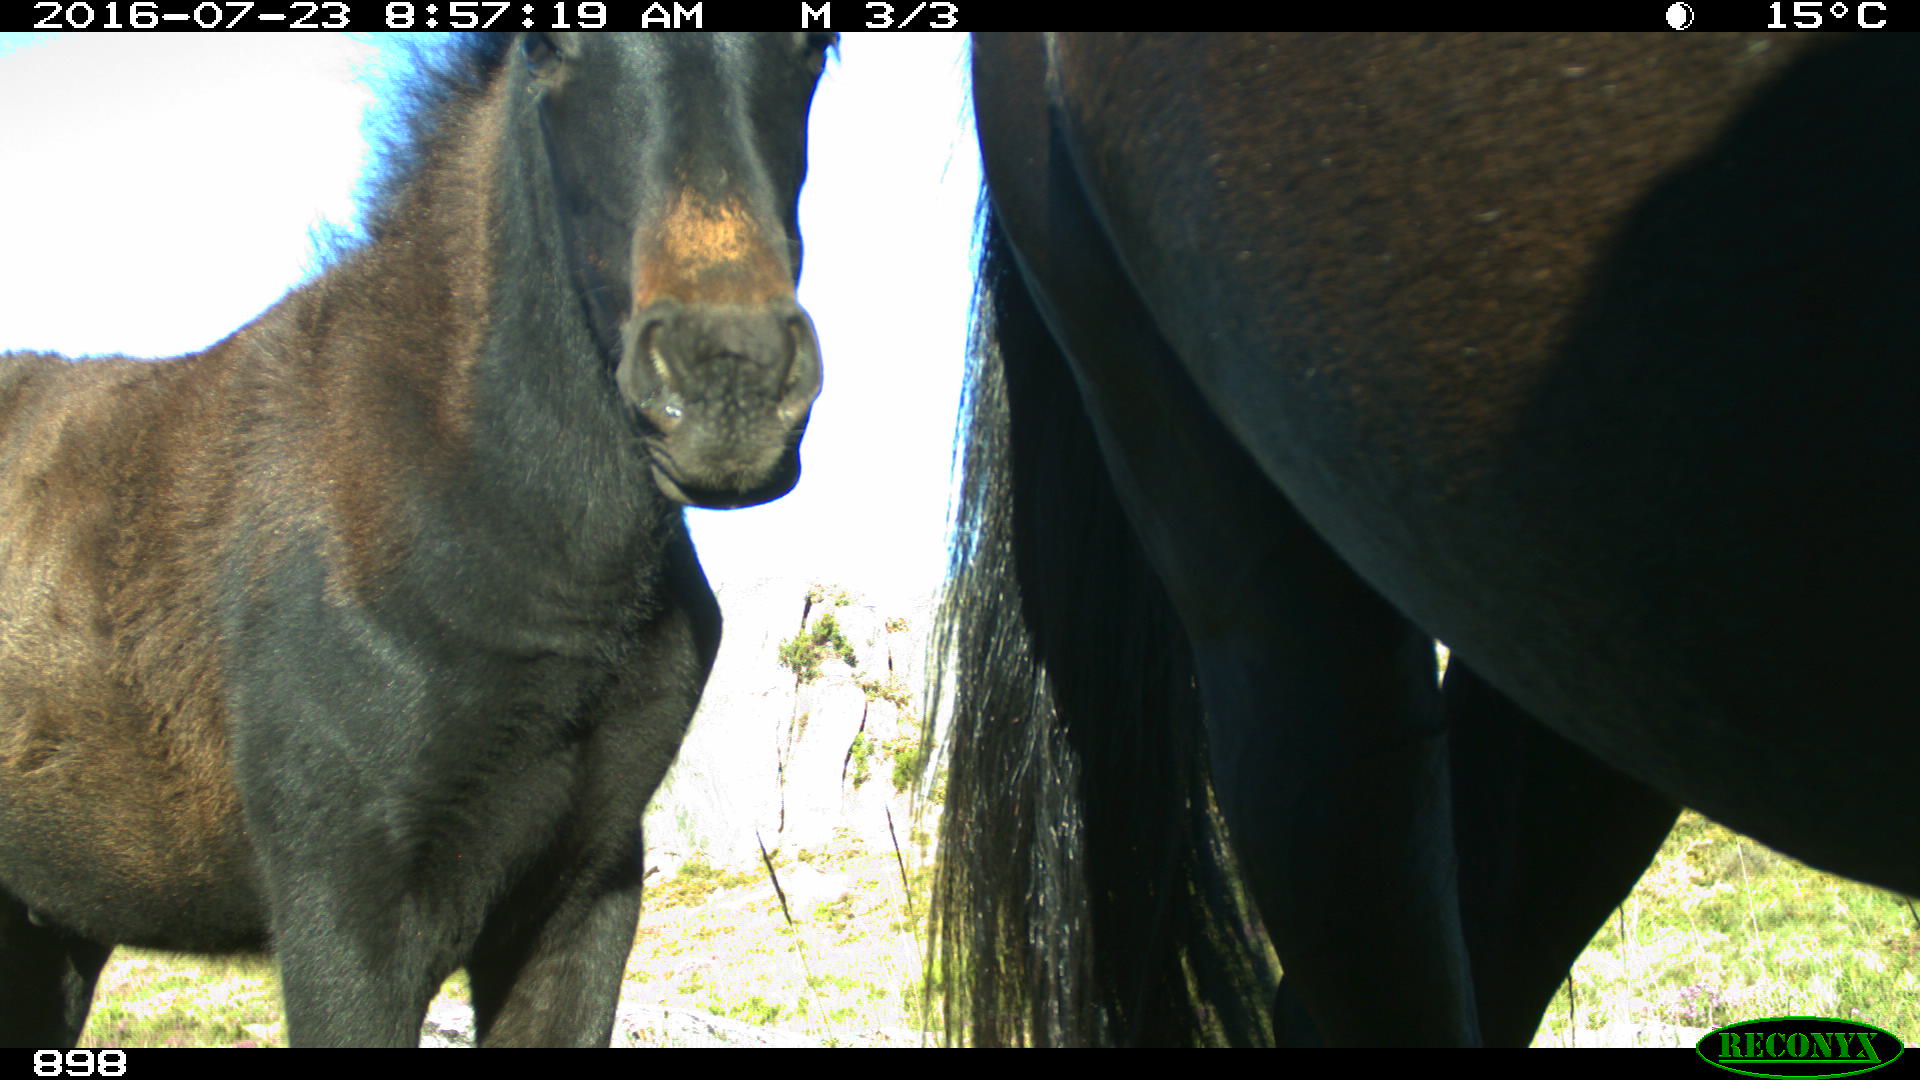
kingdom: Animalia
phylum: Chordata
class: Mammalia
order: Perissodactyla
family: Equidae
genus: Equus
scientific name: Equus caballus
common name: Horse
